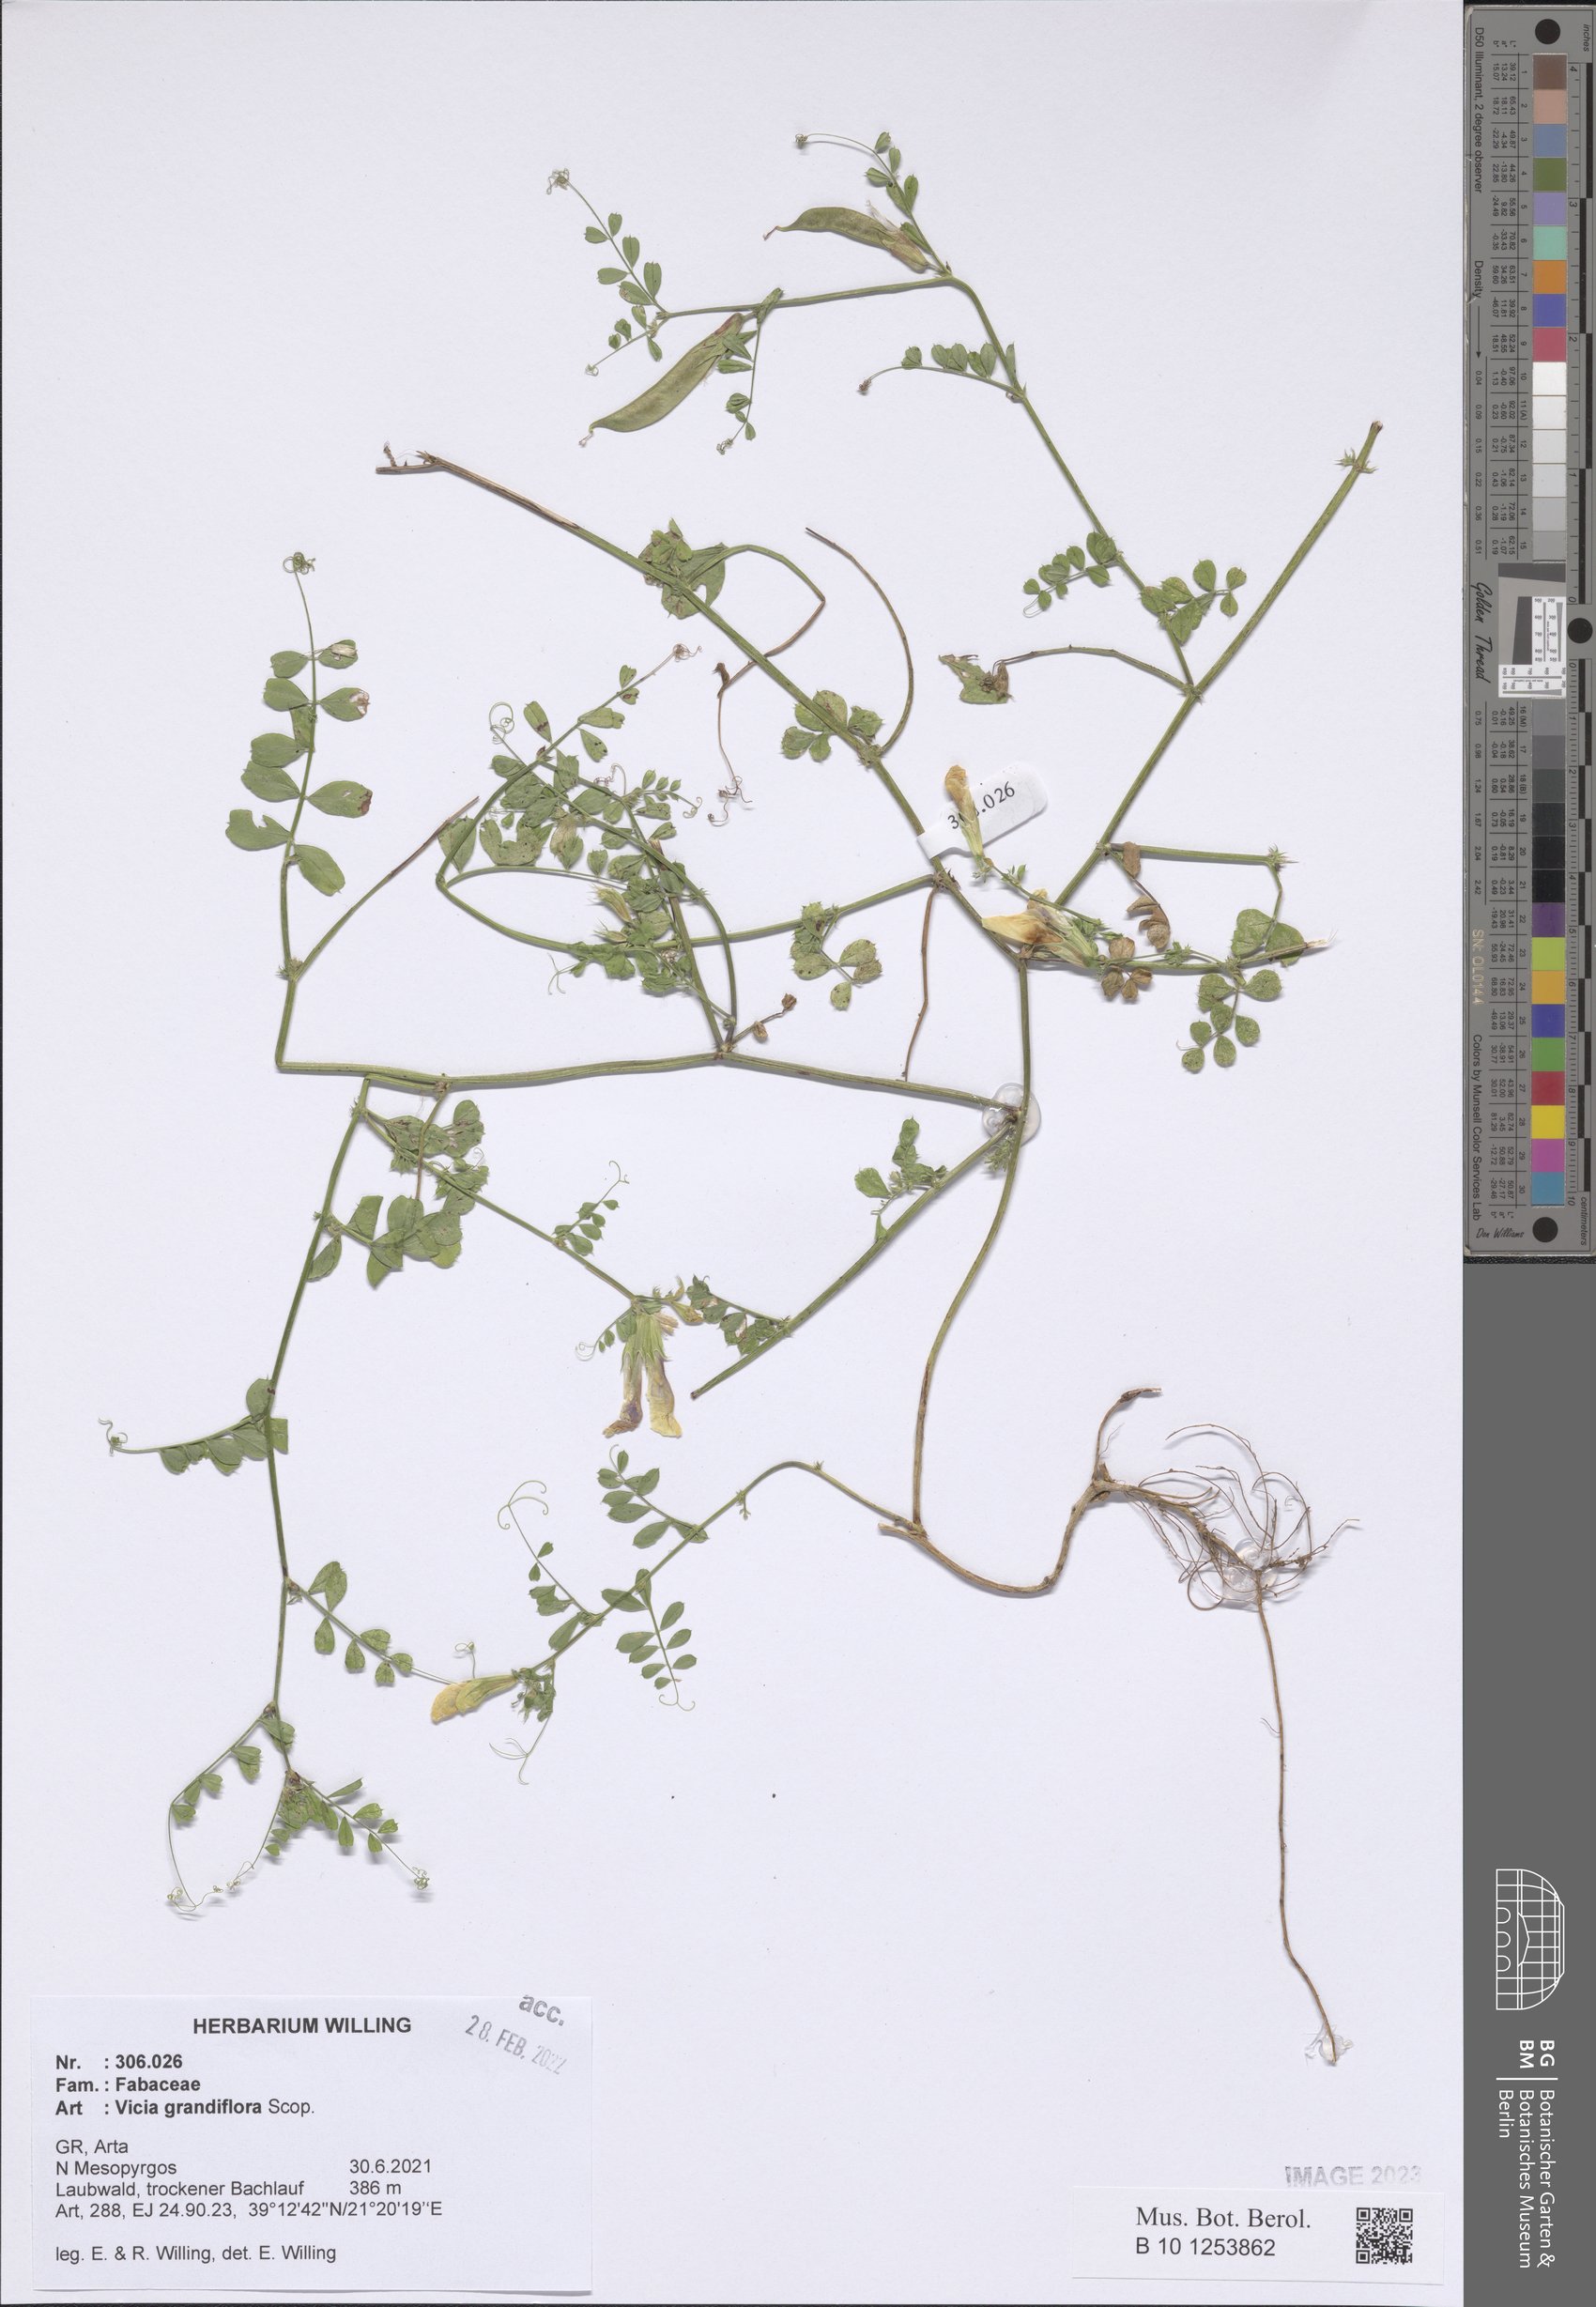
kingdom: Plantae
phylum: Tracheophyta
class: Magnoliopsida
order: Fabales
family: Fabaceae
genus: Vicia
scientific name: Vicia grandiflora
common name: Large yellow vetch
